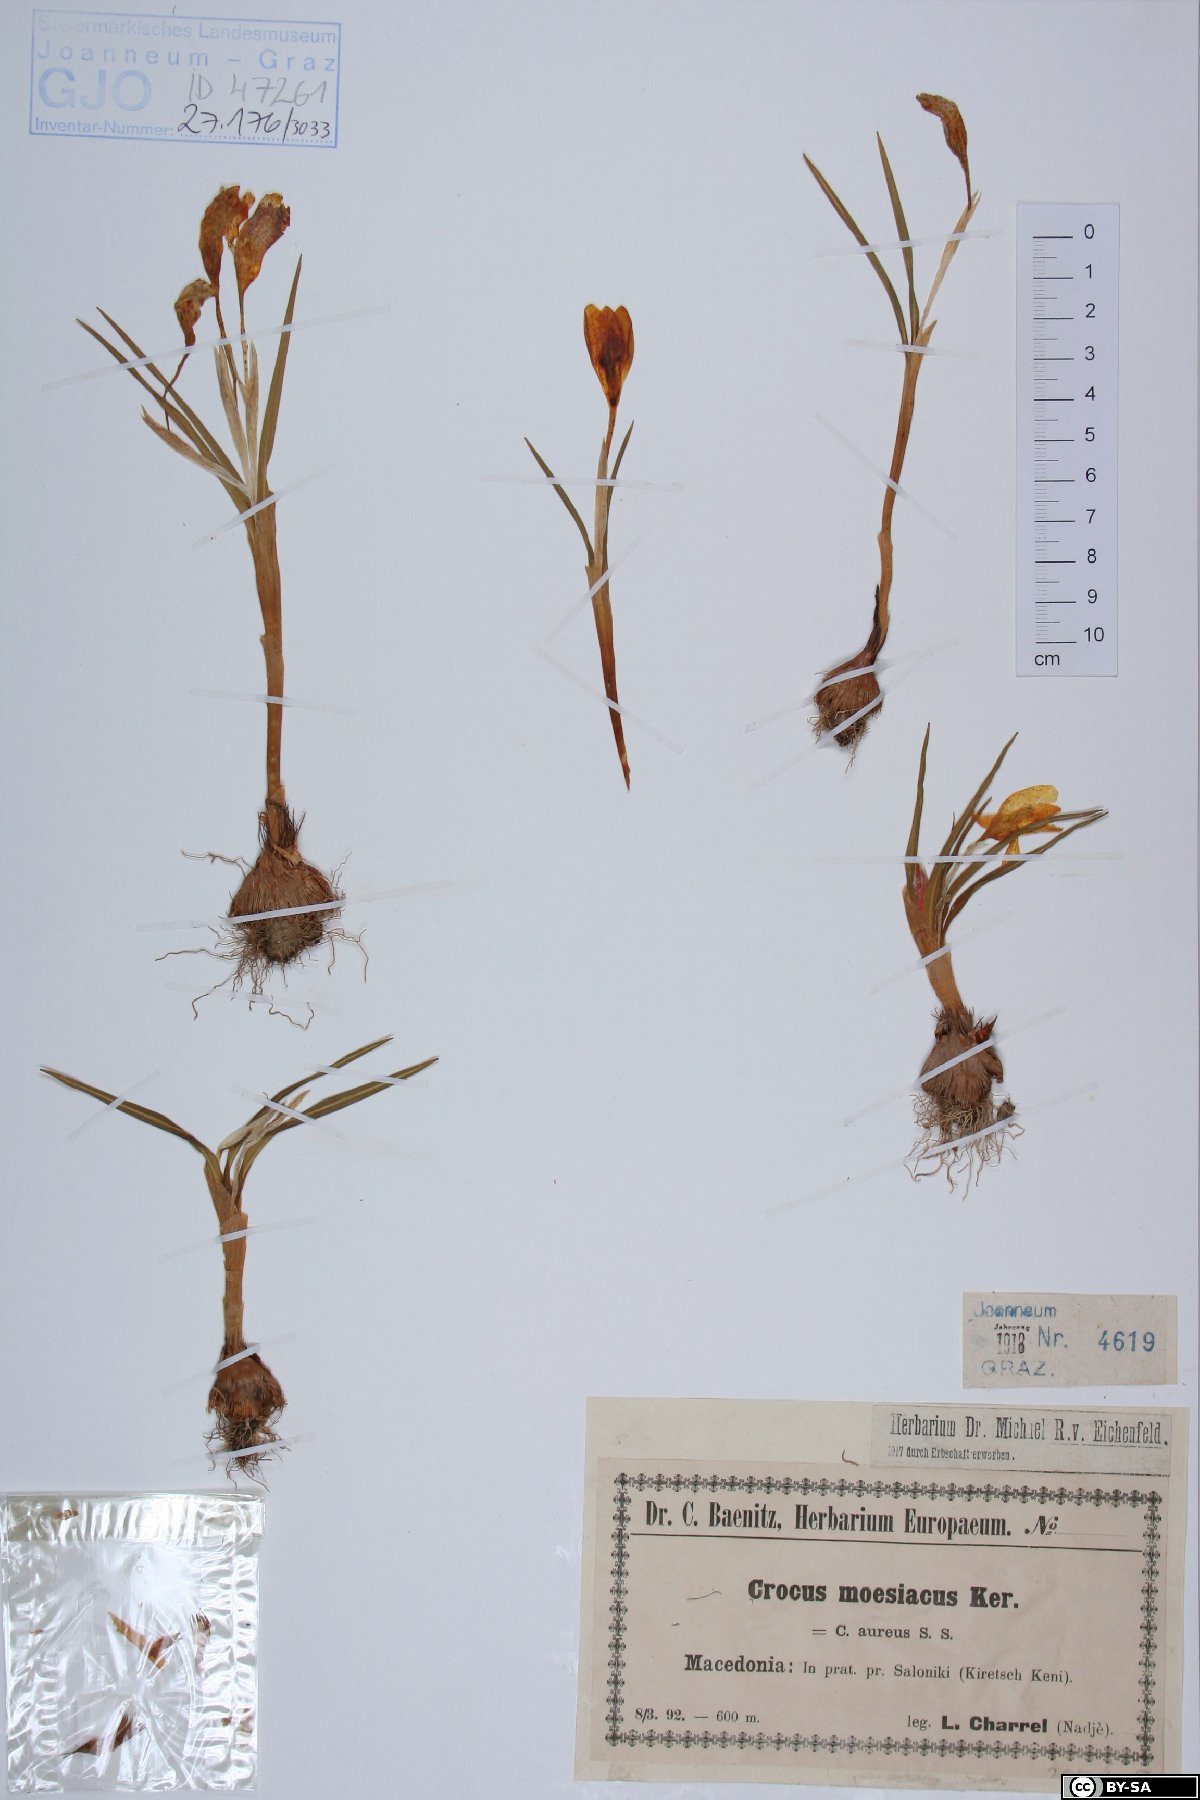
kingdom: Plantae
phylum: Tracheophyta
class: Liliopsida
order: Asparagales
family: Iridaceae
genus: Crocus
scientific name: Crocus flavus
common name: Yellow crocus
